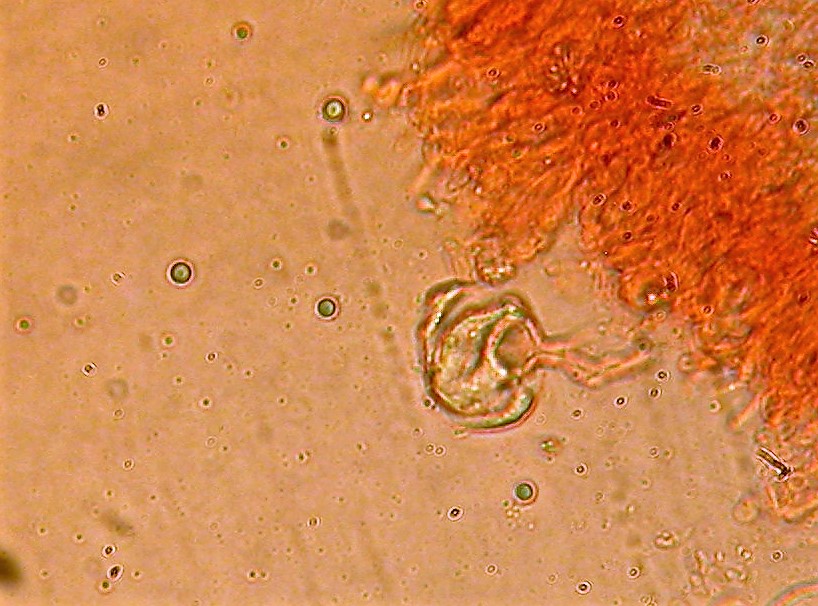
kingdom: Fungi
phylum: Basidiomycota
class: Agaricomycetes
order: Hymenochaetales
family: Rickenellaceae
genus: Resinicium
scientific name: Resinicium bicolor
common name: almindelig vokstand
